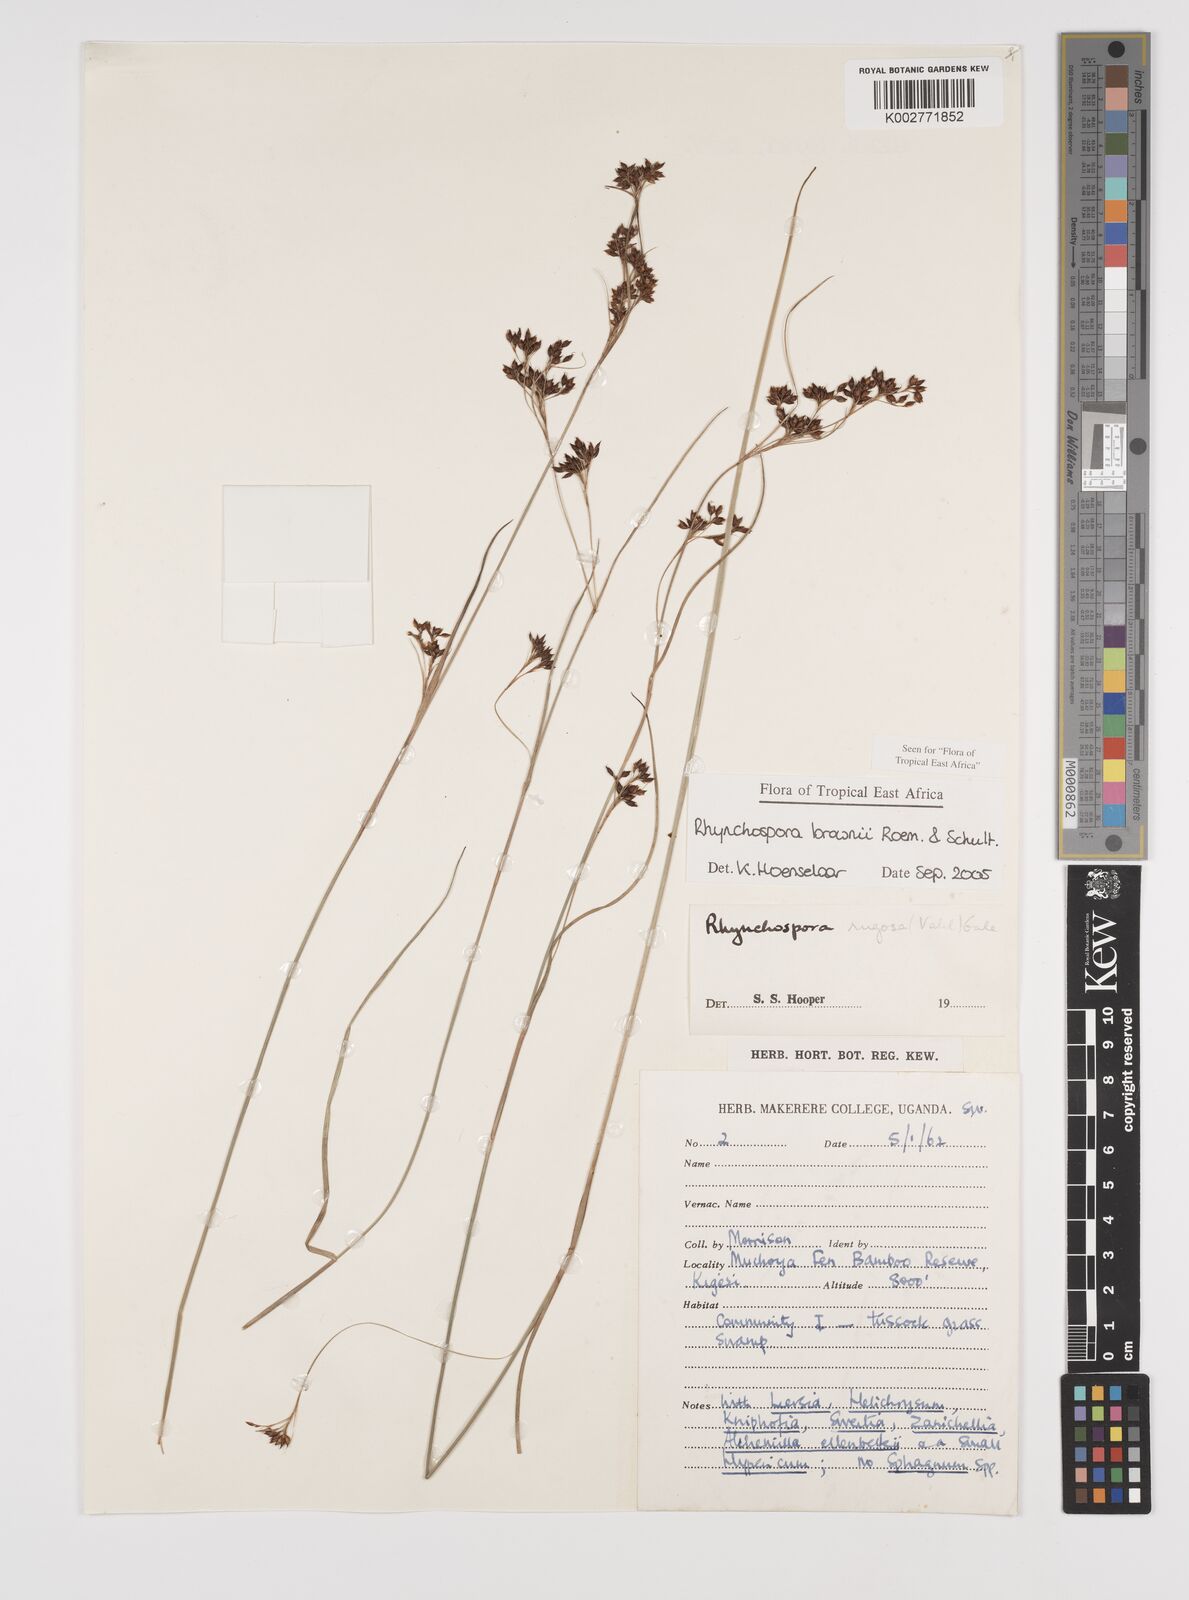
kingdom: Plantae
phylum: Tracheophyta
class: Liliopsida
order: Poales
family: Cyperaceae
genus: Rhynchospora
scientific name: Rhynchospora brownii
